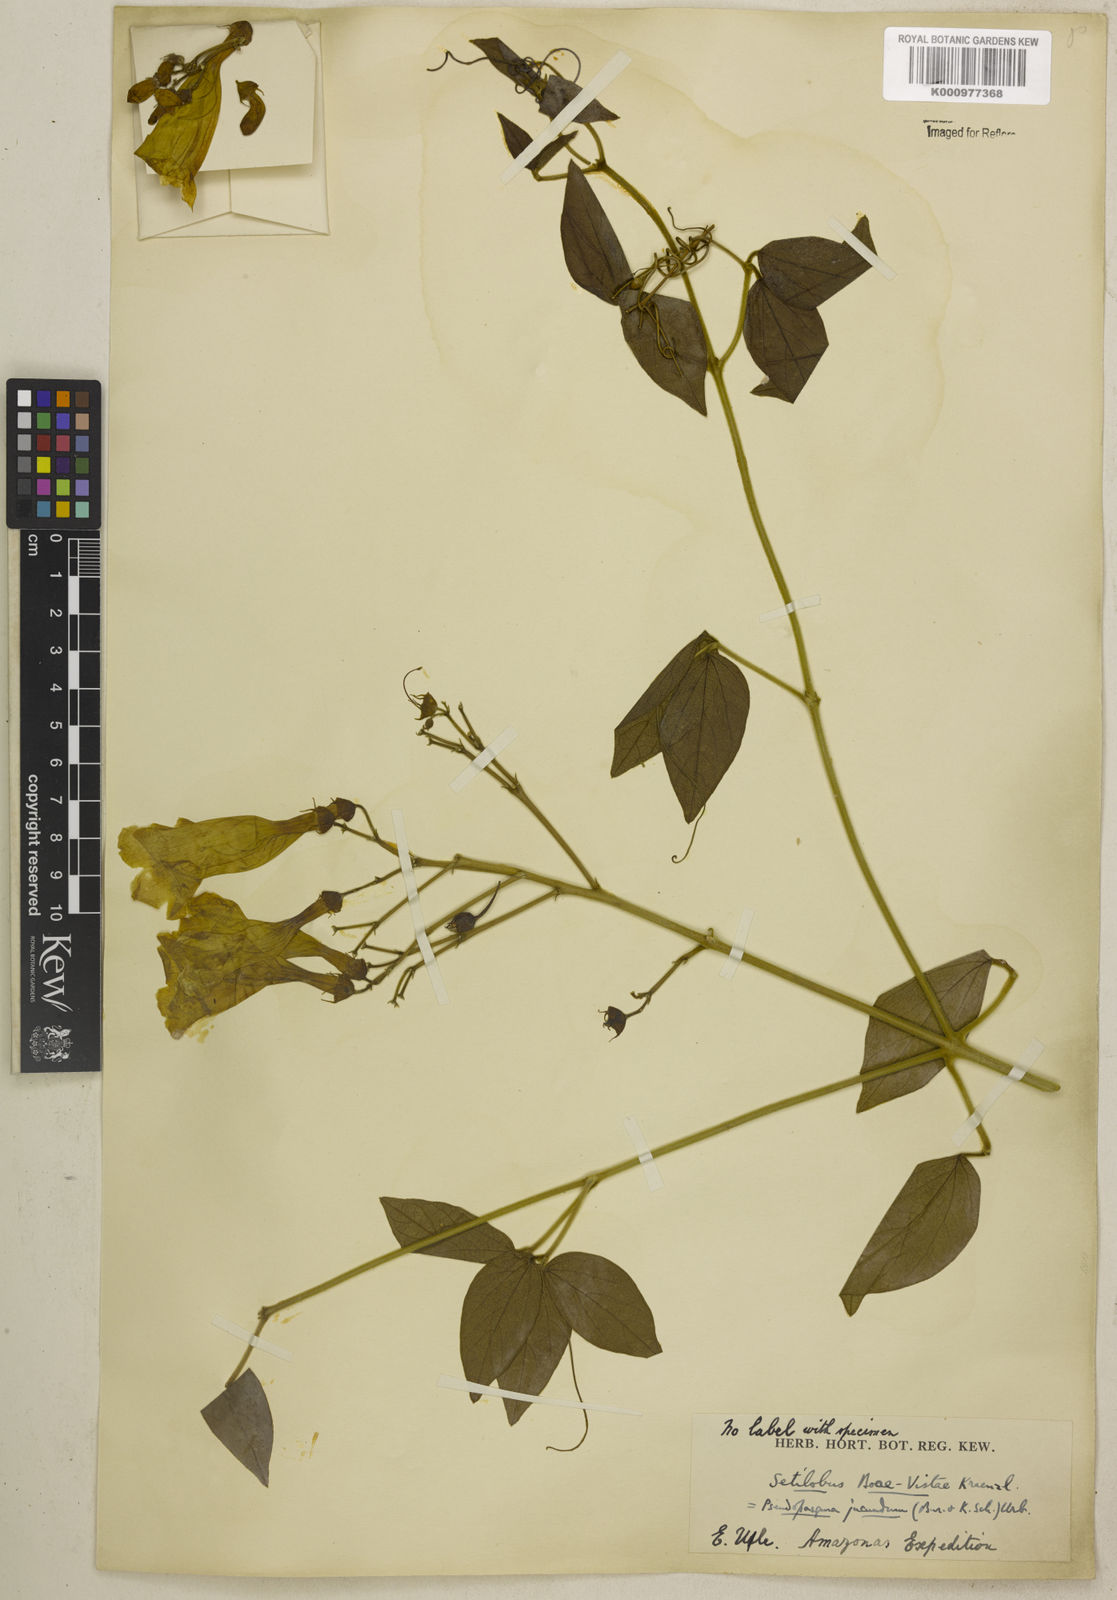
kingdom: Plantae
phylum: Tracheophyta
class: Magnoliopsida
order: Lamiales
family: Bignoniaceae
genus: Anemopaegma
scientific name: Anemopaegma jucundum
